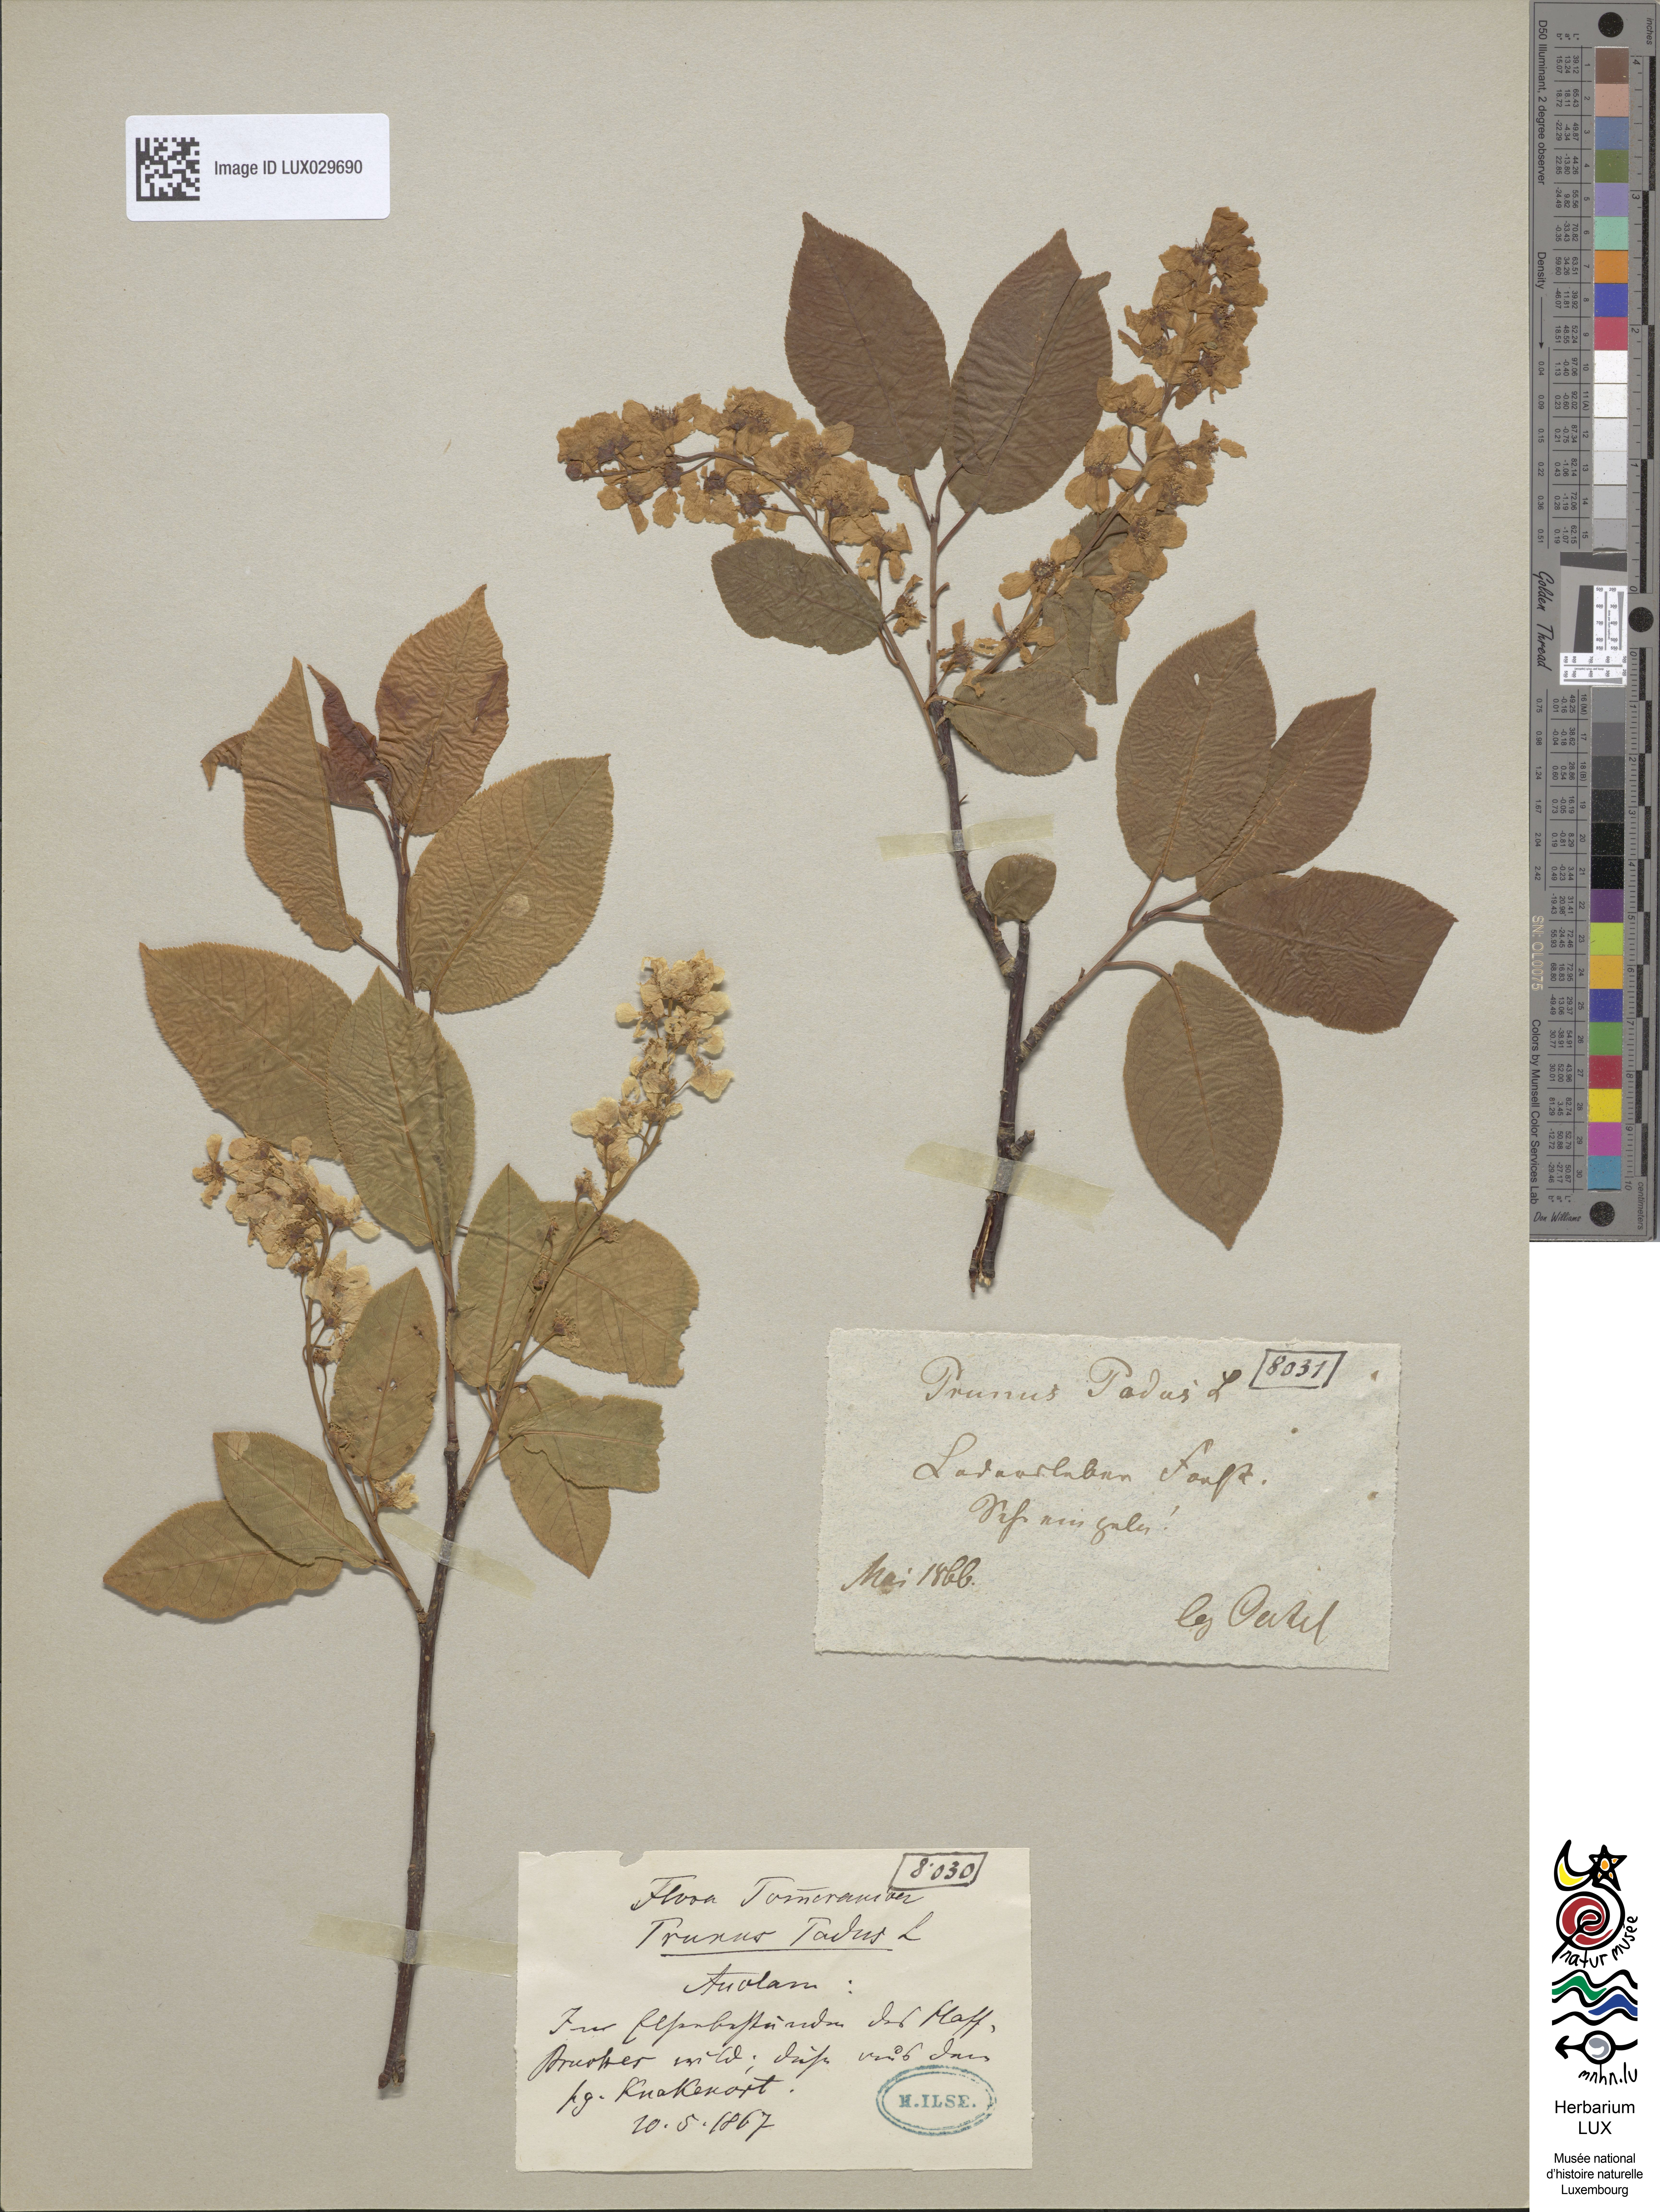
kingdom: Plantae
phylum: Tracheophyta
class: Magnoliopsida
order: Rosales
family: Rosaceae
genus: Prunus
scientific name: Prunus padus
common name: Bird cherry
